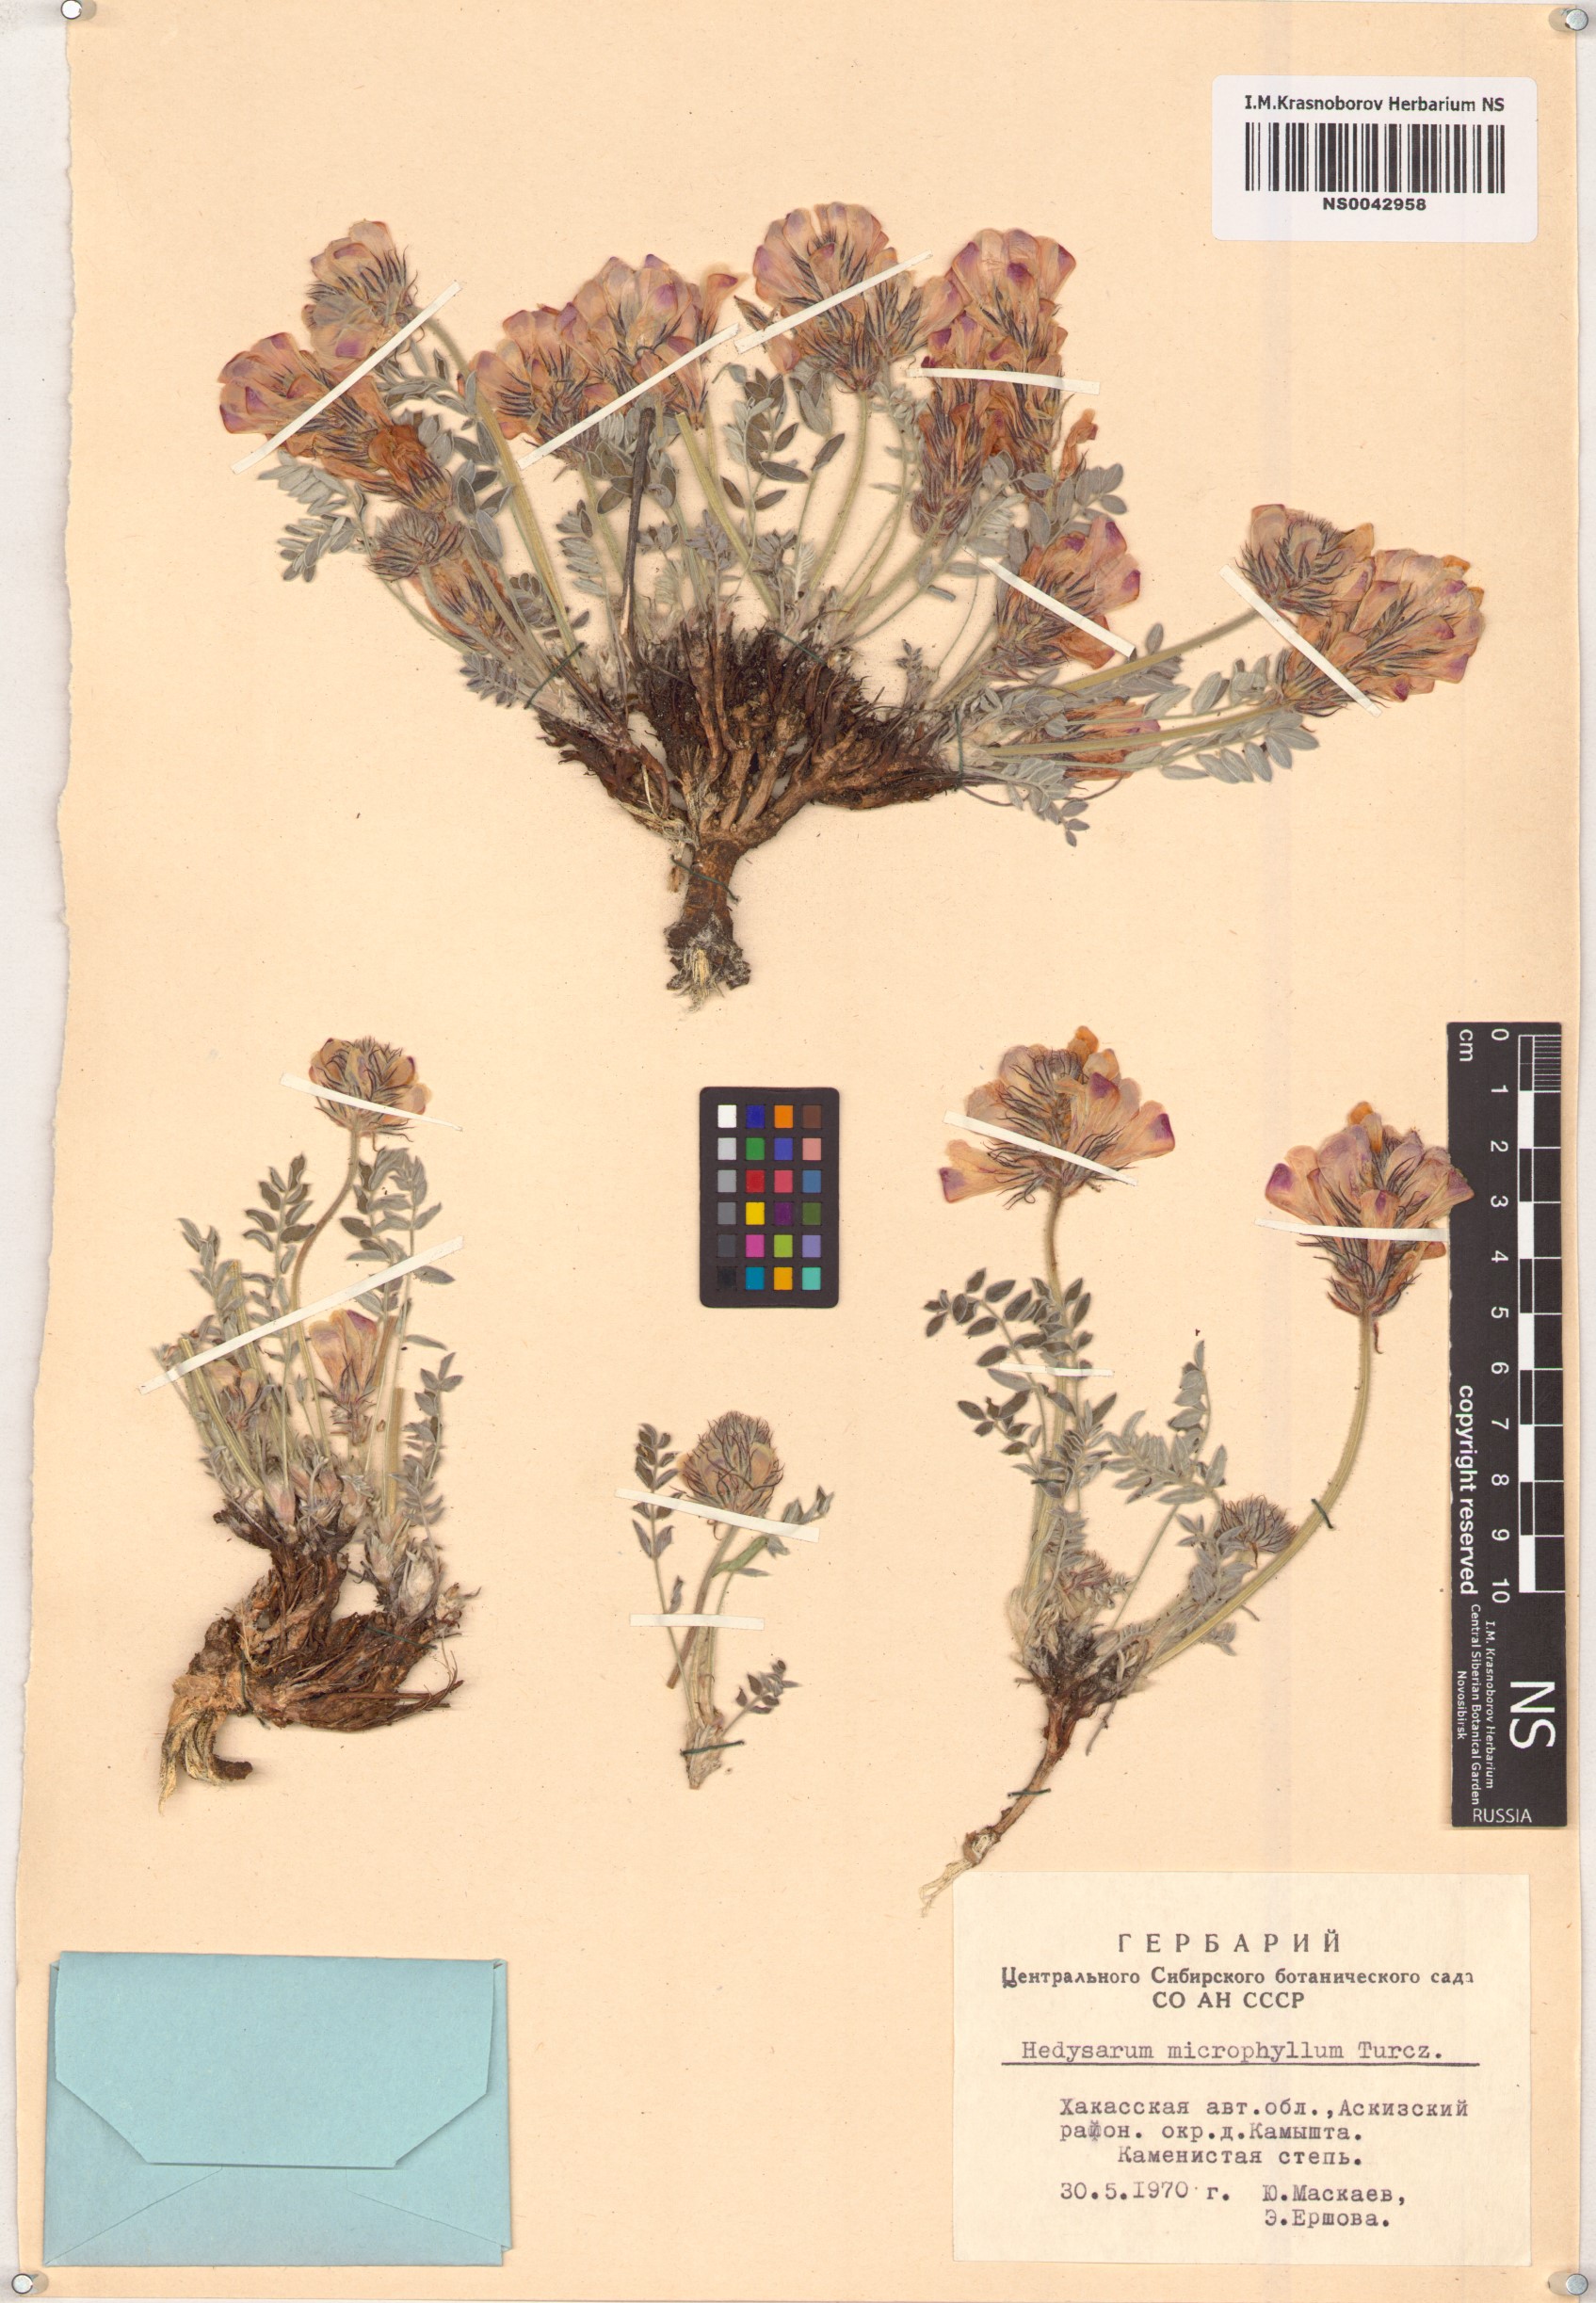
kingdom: Plantae
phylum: Tracheophyta
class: Magnoliopsida
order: Fabales
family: Fabaceae
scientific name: Fabaceae
